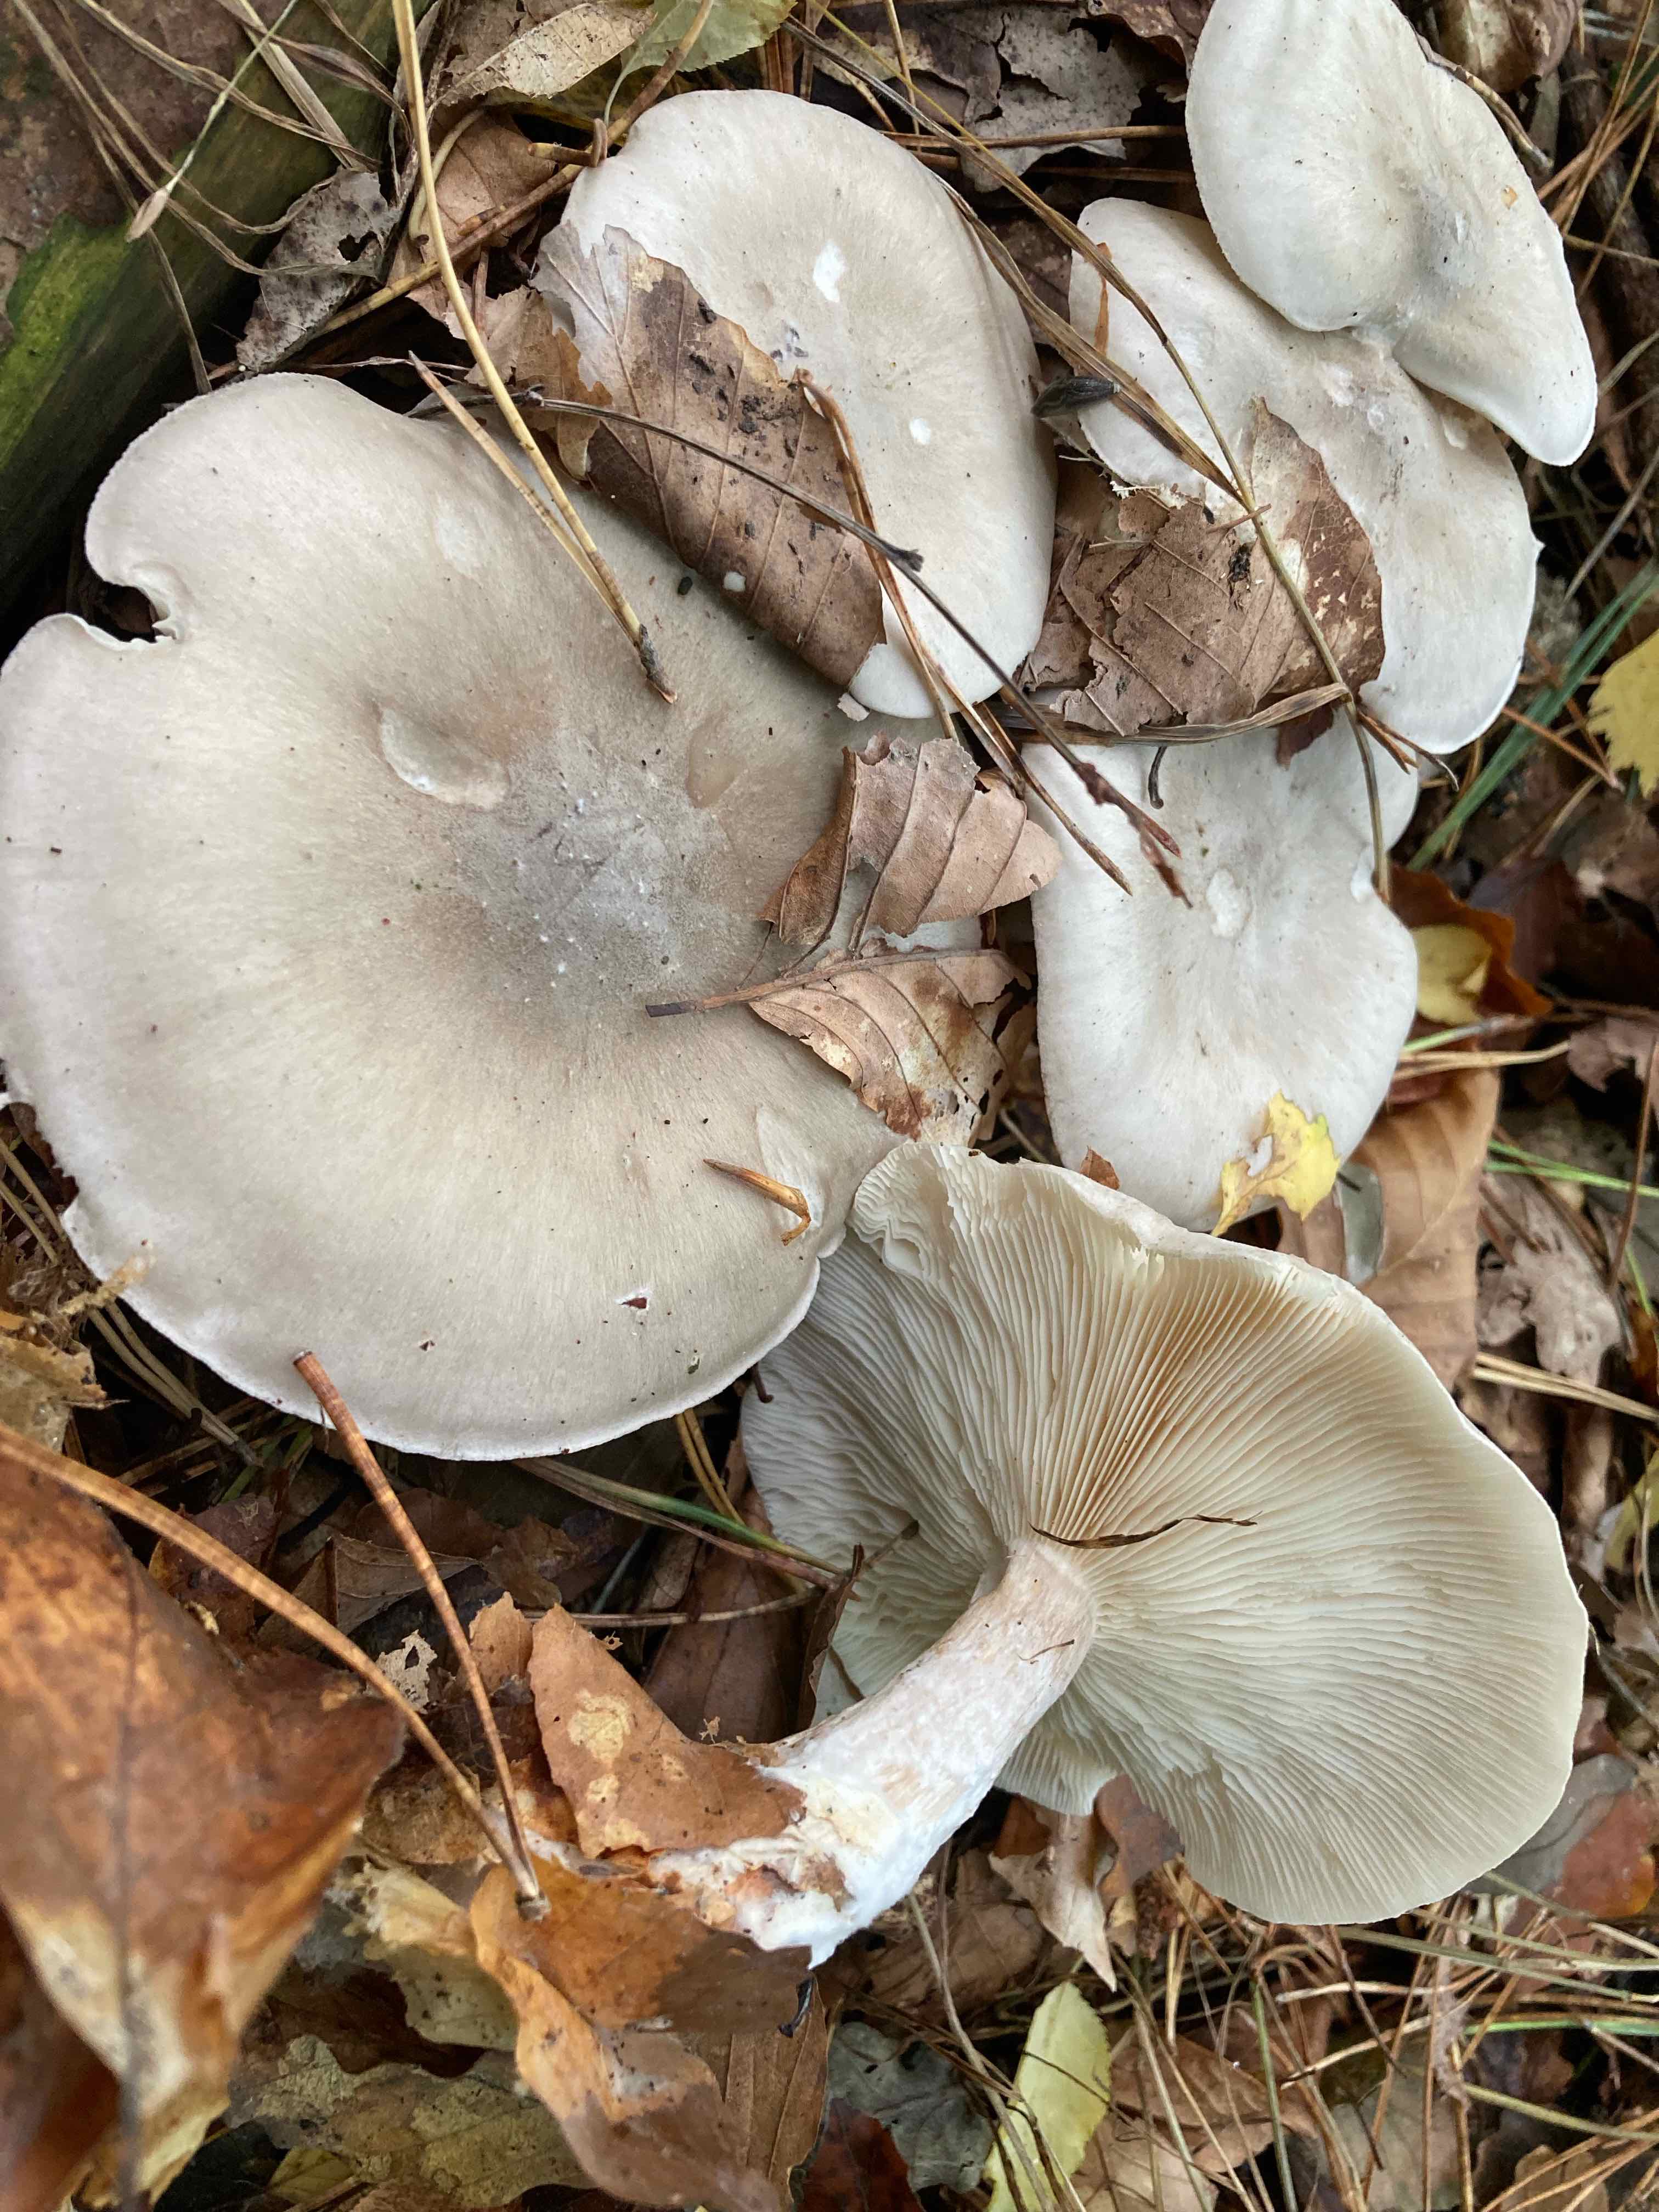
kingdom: Fungi
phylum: Basidiomycota
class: Agaricomycetes
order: Agaricales
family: Tricholomataceae
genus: Clitocybe
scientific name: Clitocybe nebularis
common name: tåge-tragthat
